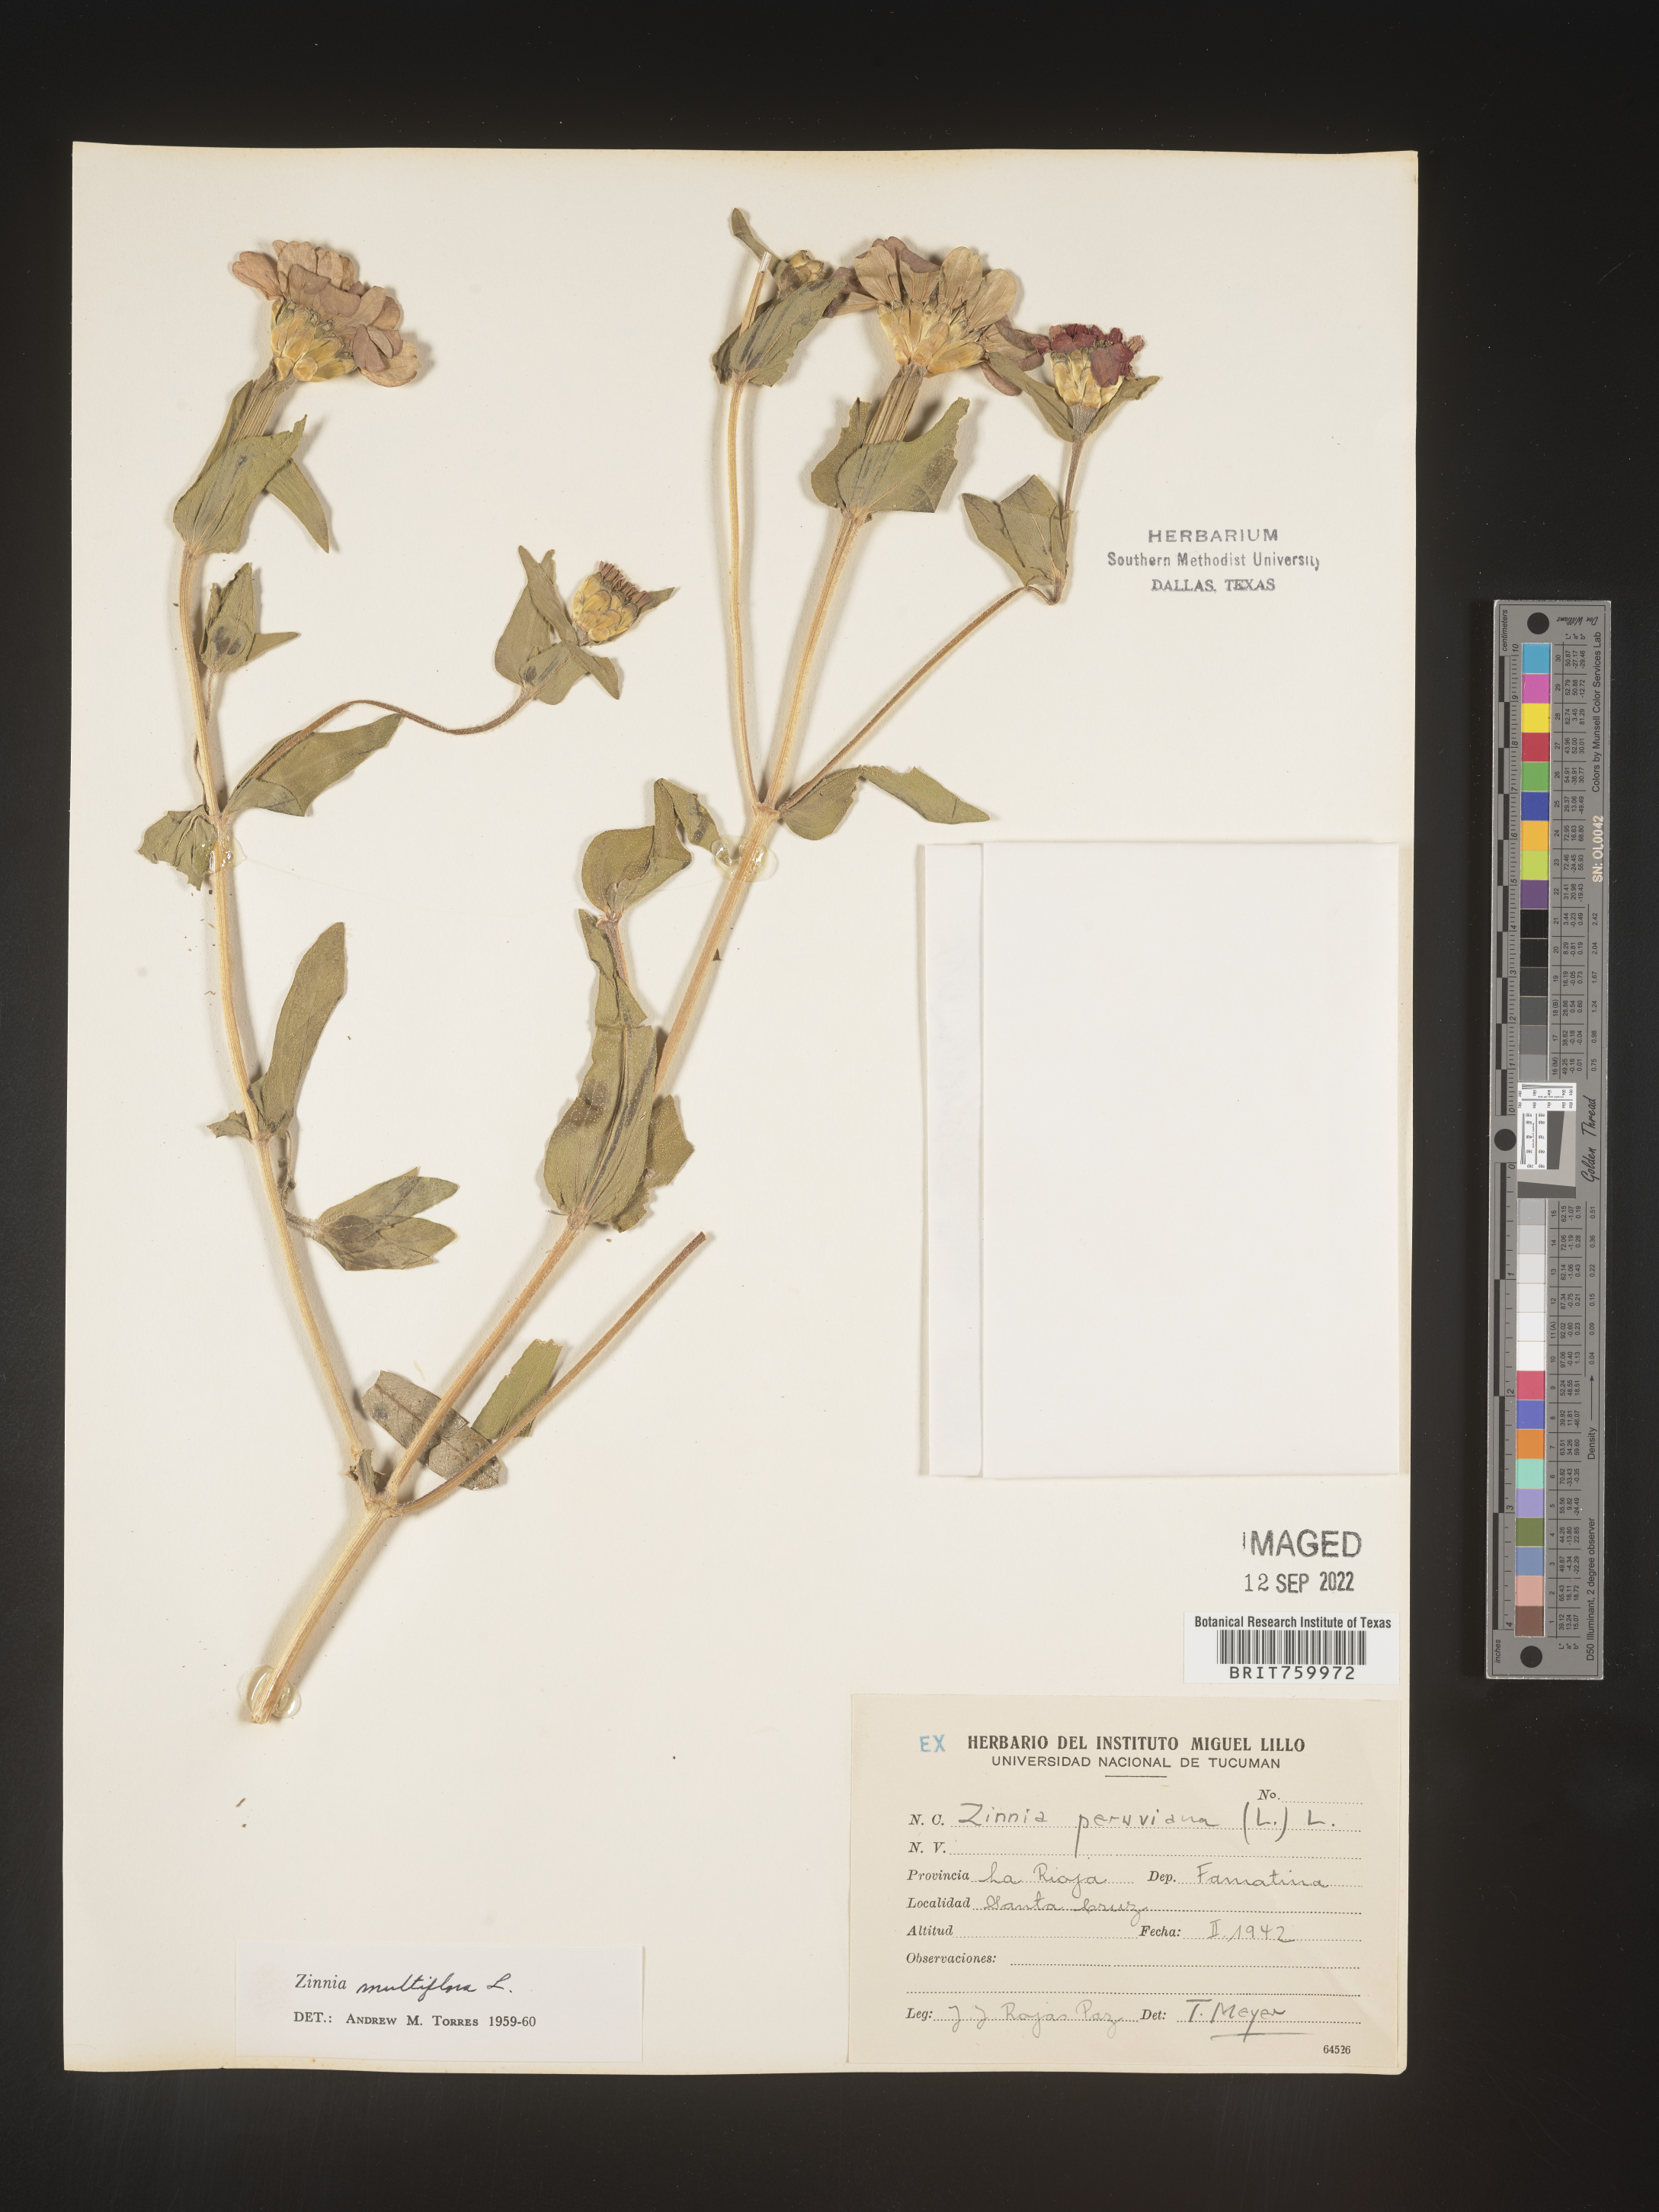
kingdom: Plantae
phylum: Tracheophyta
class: Magnoliopsida
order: Asterales
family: Asteraceae
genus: Zinnia
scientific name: Zinnia
